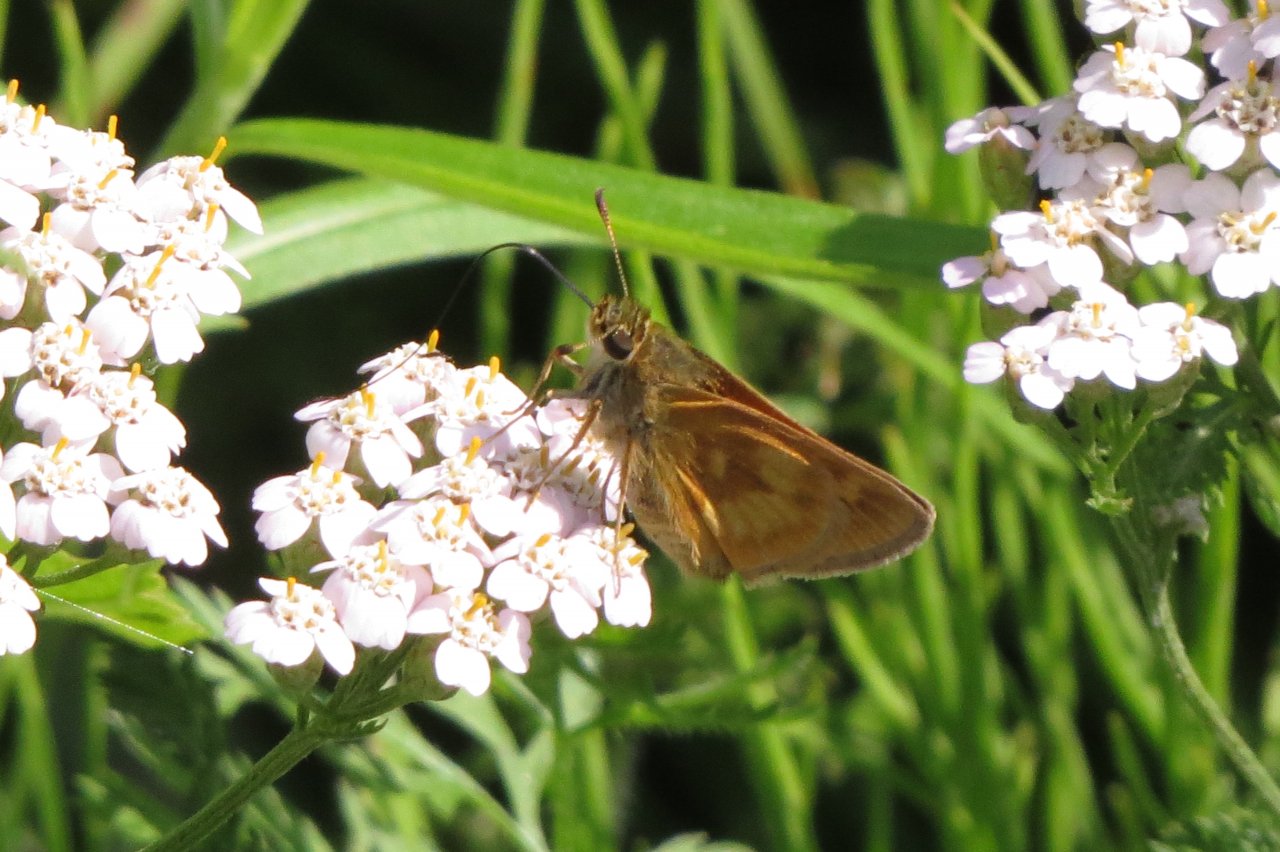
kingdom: Animalia
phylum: Arthropoda
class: Insecta
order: Lepidoptera
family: Hesperiidae
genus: Polites
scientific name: Polites
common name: Long Dash Skipper
